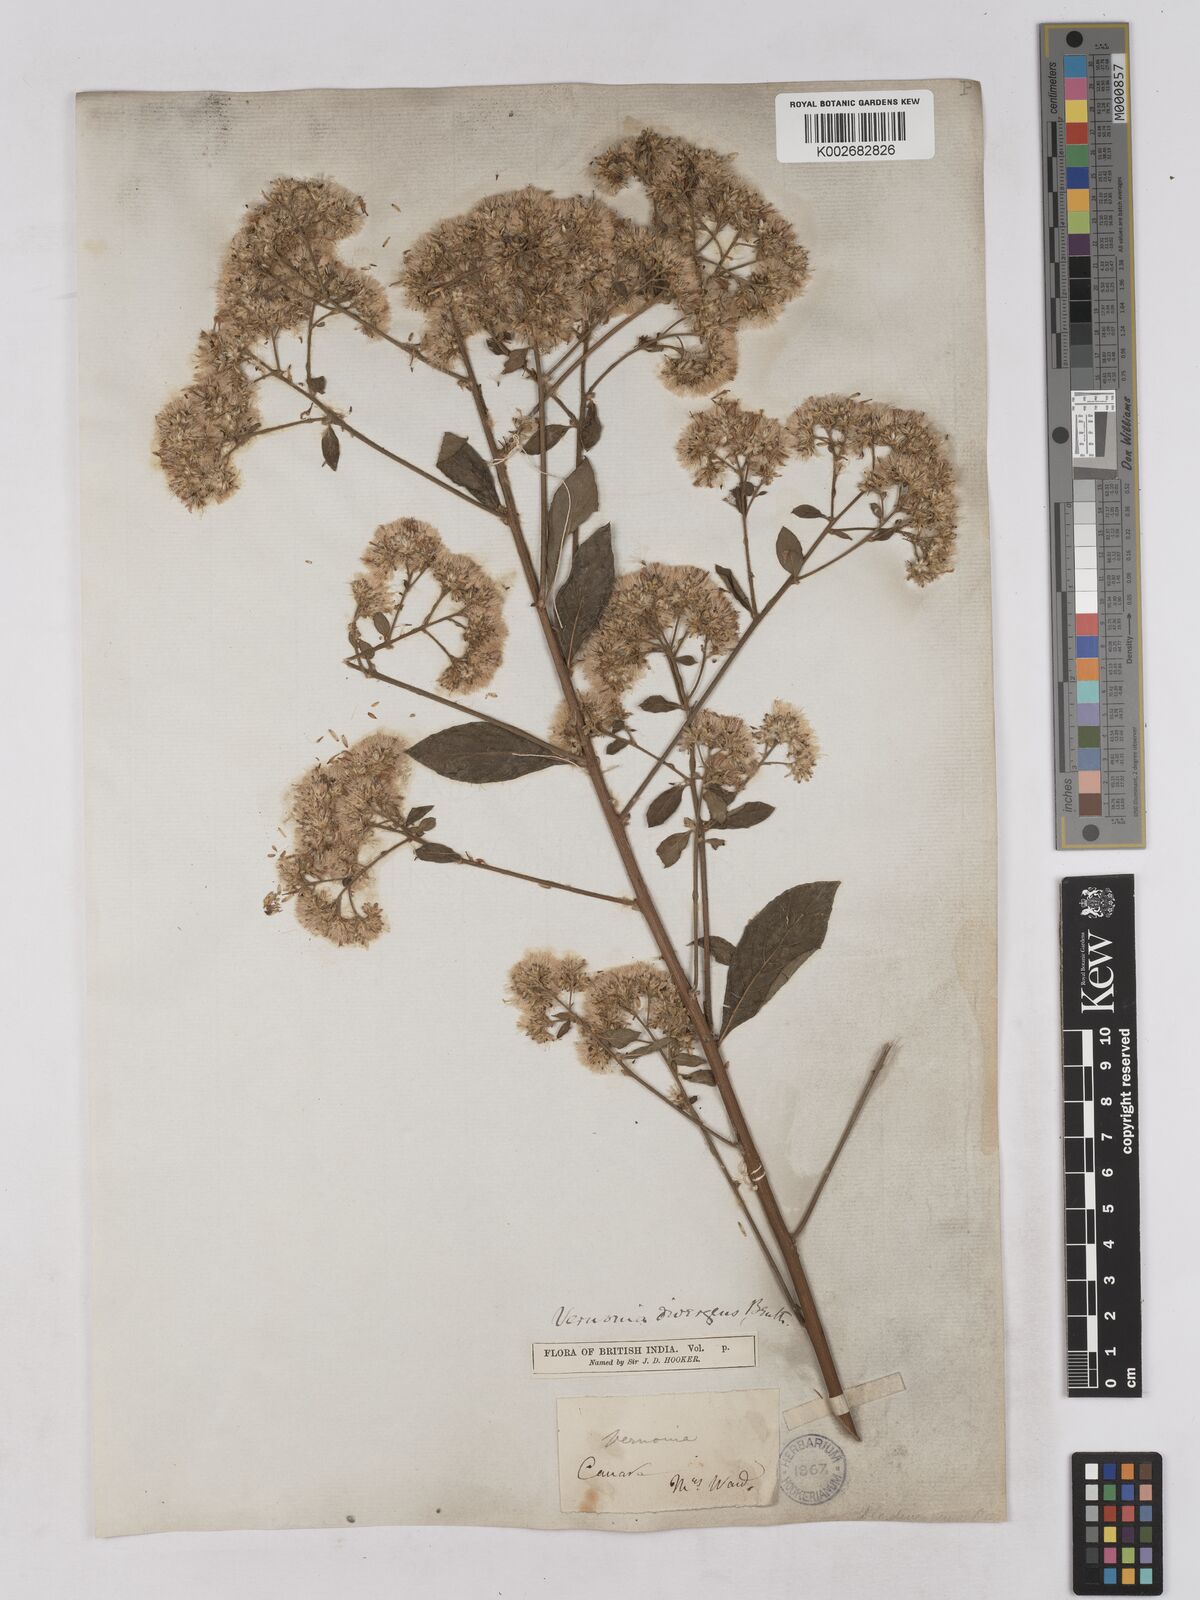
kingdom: Plantae
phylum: Tracheophyta
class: Magnoliopsida
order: Asterales
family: Asteraceae
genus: Acilepis
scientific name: Acilepis divergens
